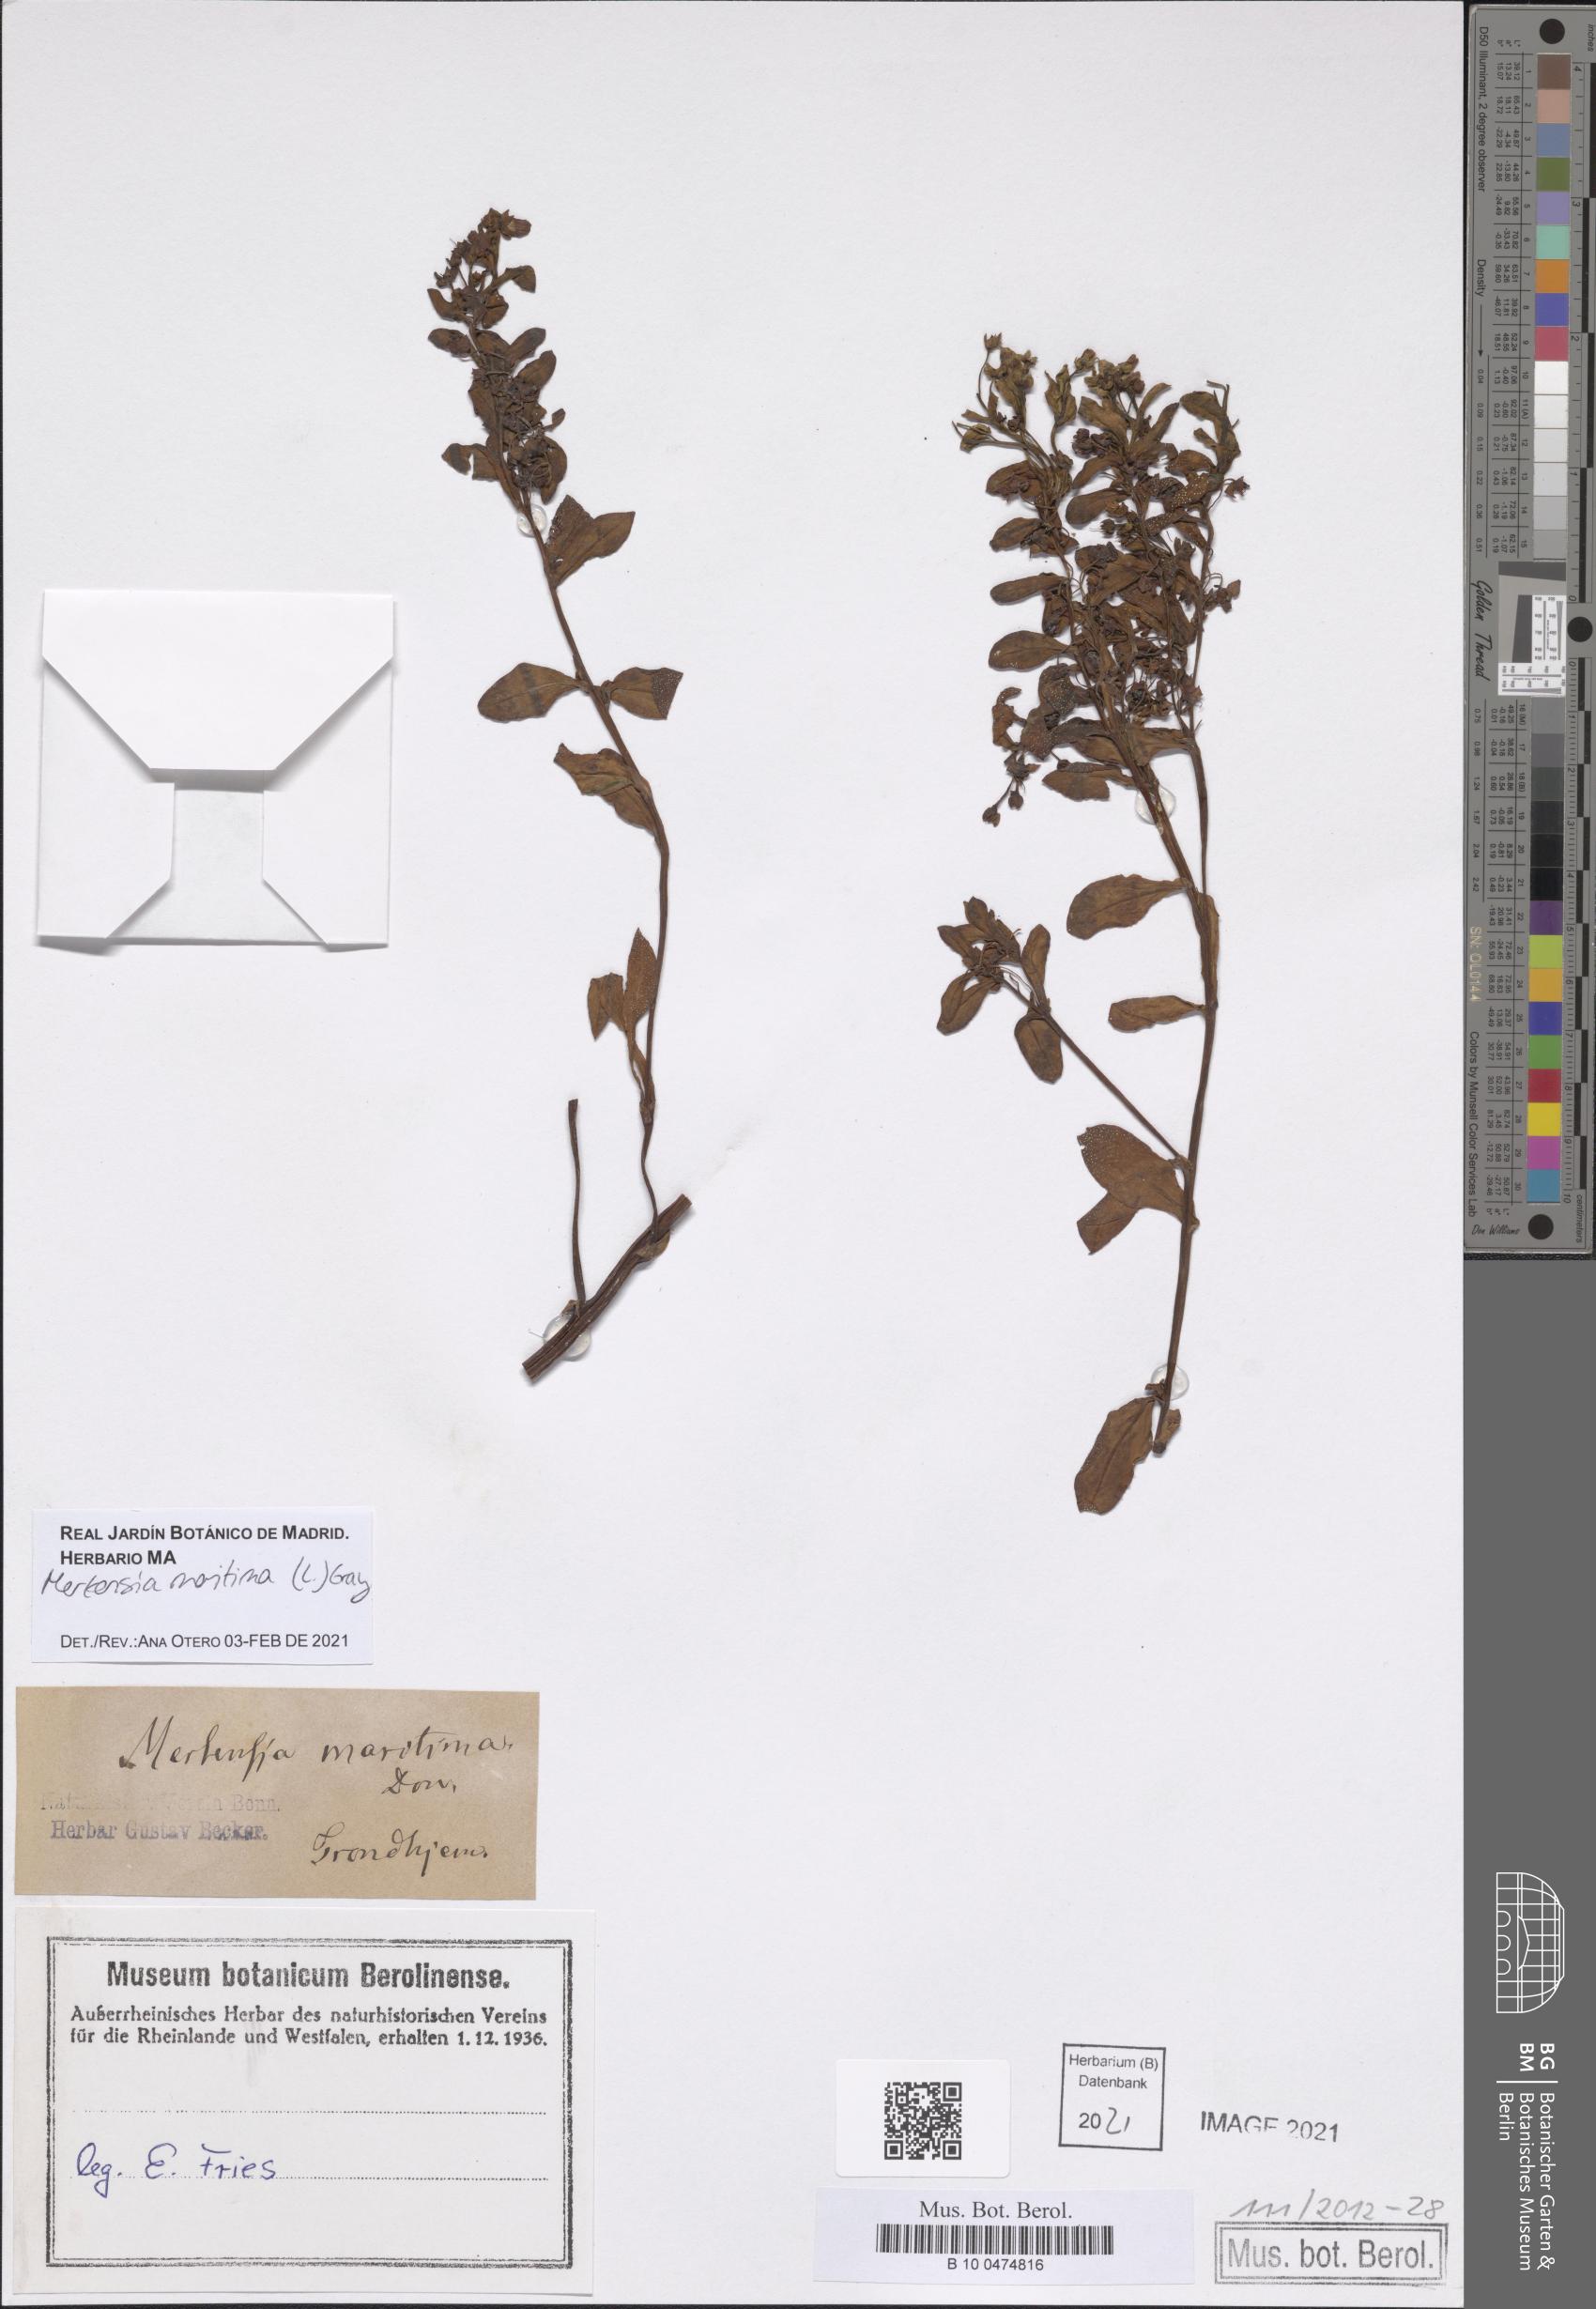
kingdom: Plantae
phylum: Tracheophyta
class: Magnoliopsida
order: Boraginales
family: Boraginaceae
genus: Mertensia
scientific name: Mertensia maritima
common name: Oysterplant
